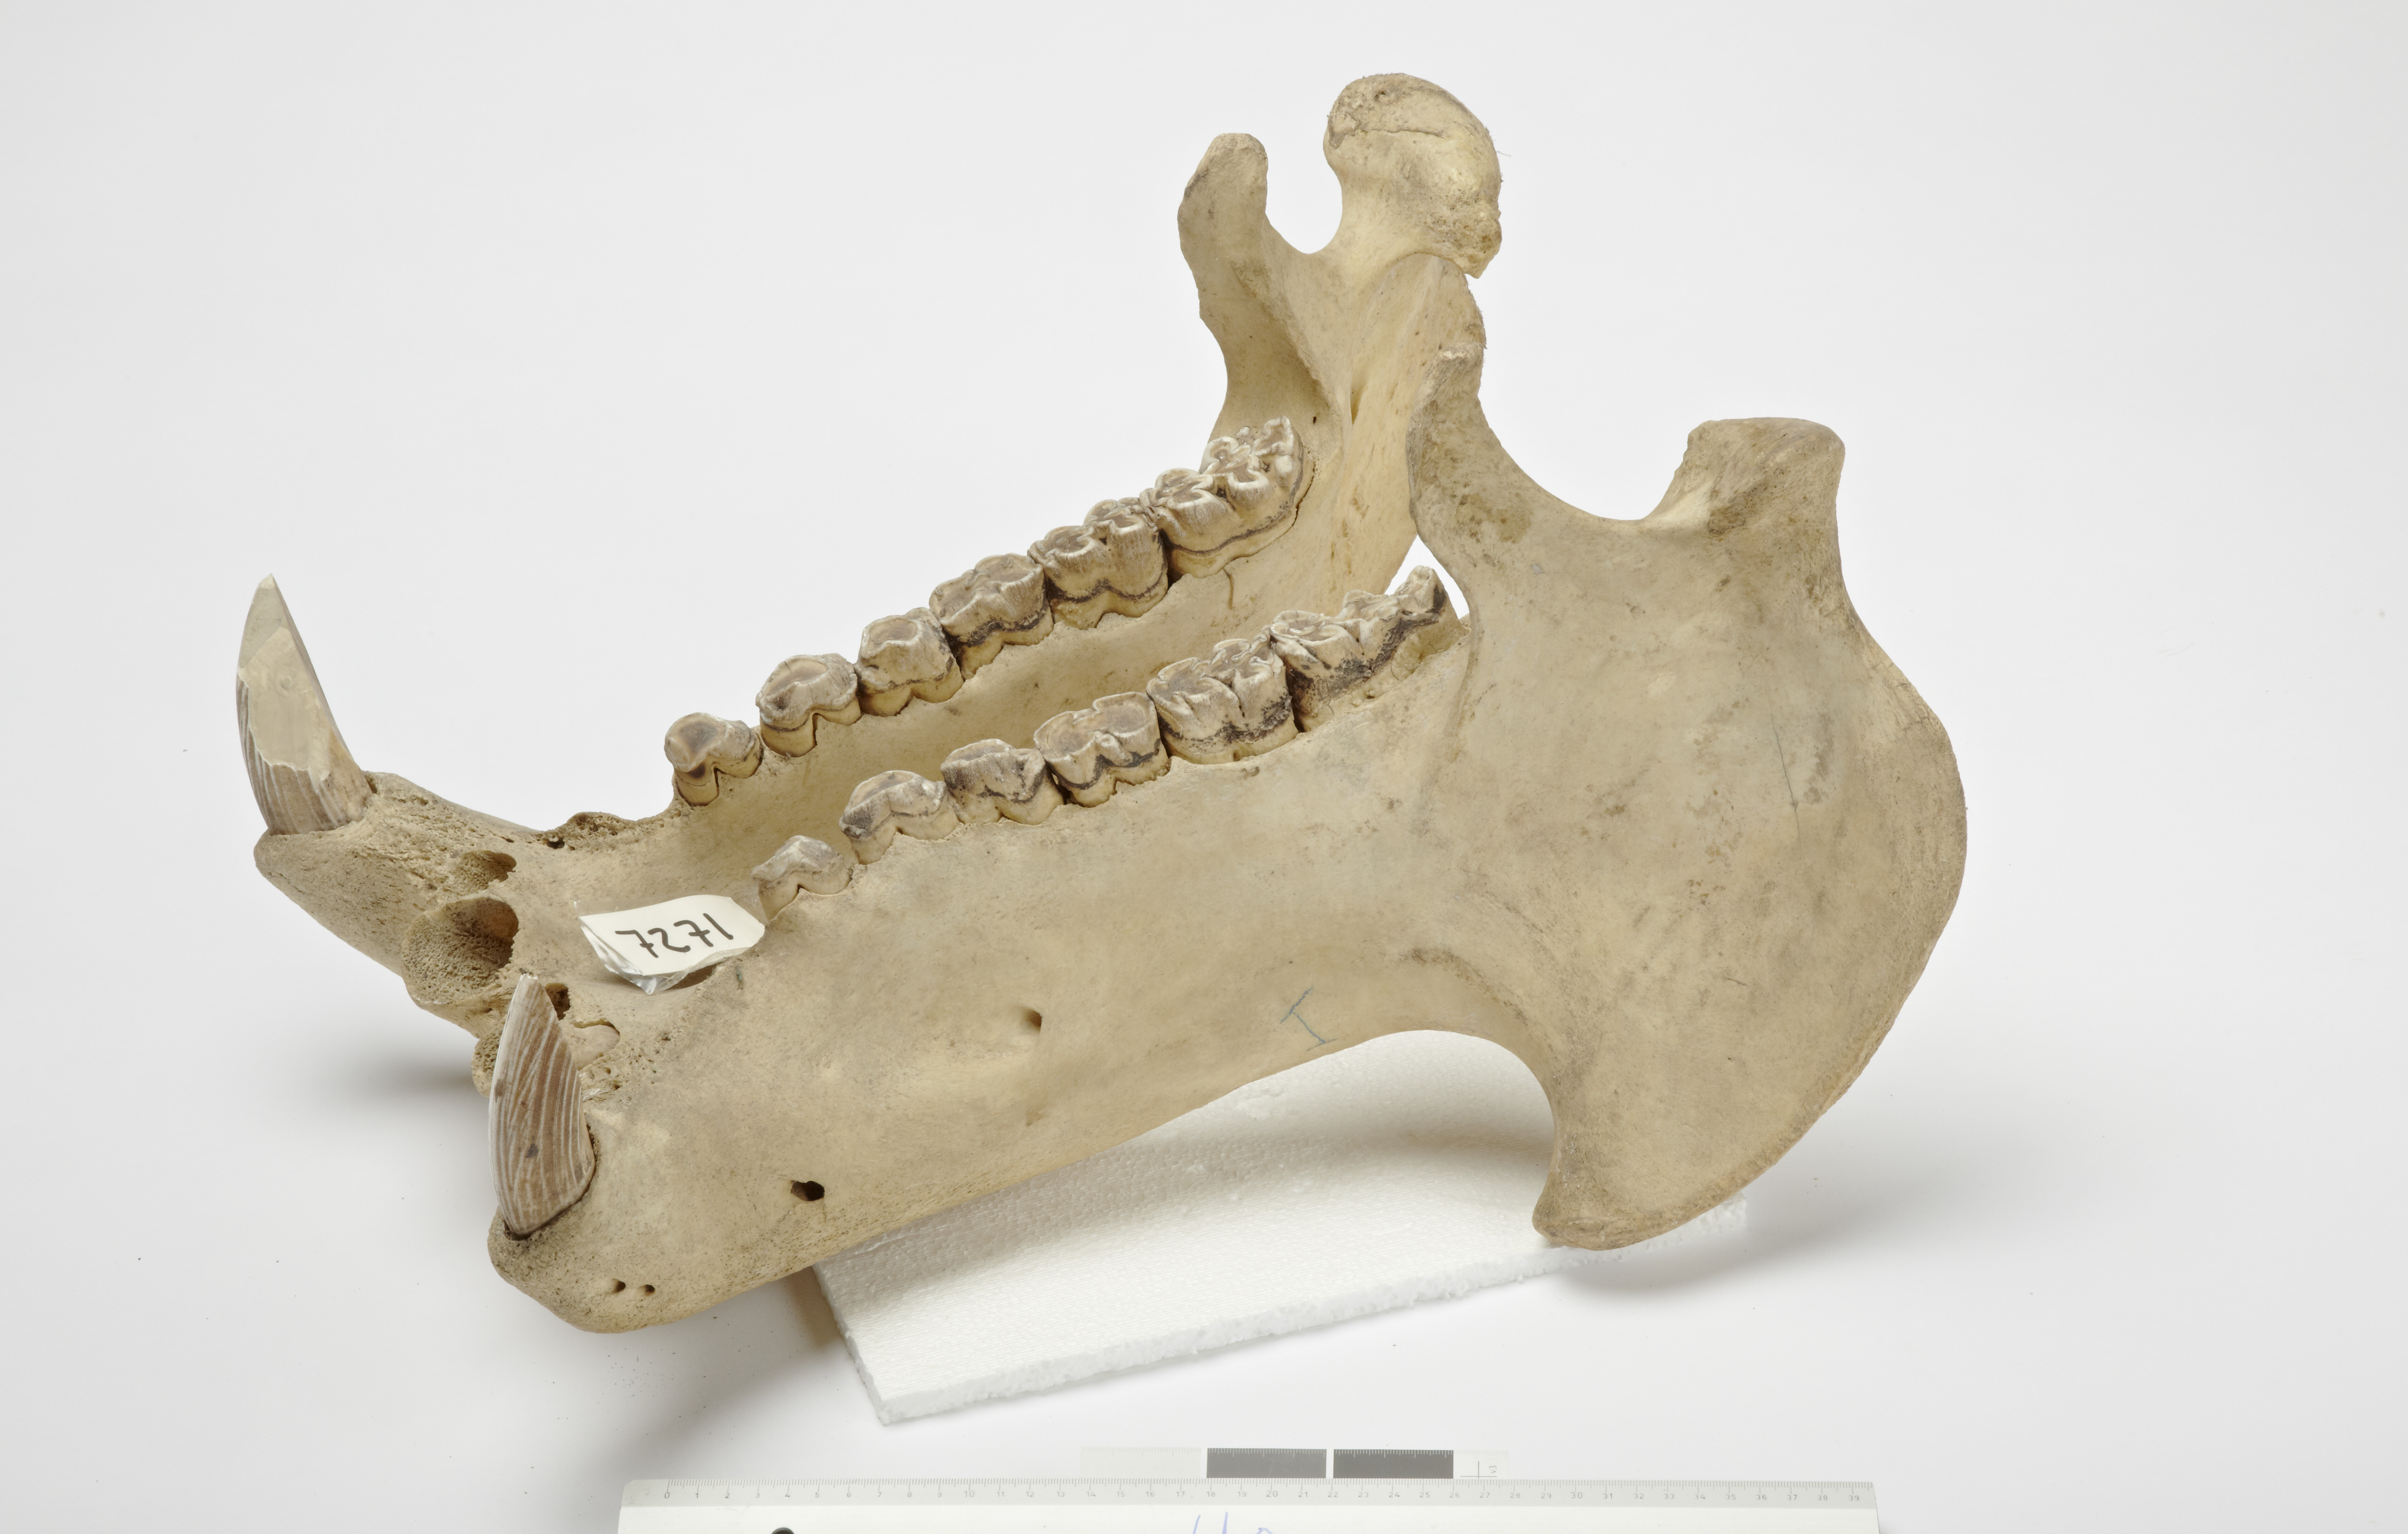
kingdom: Animalia
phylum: Chordata
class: Mammalia
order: Artiodactyla
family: Hippopotamidae
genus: Hippopotamus
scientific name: Hippopotamus
